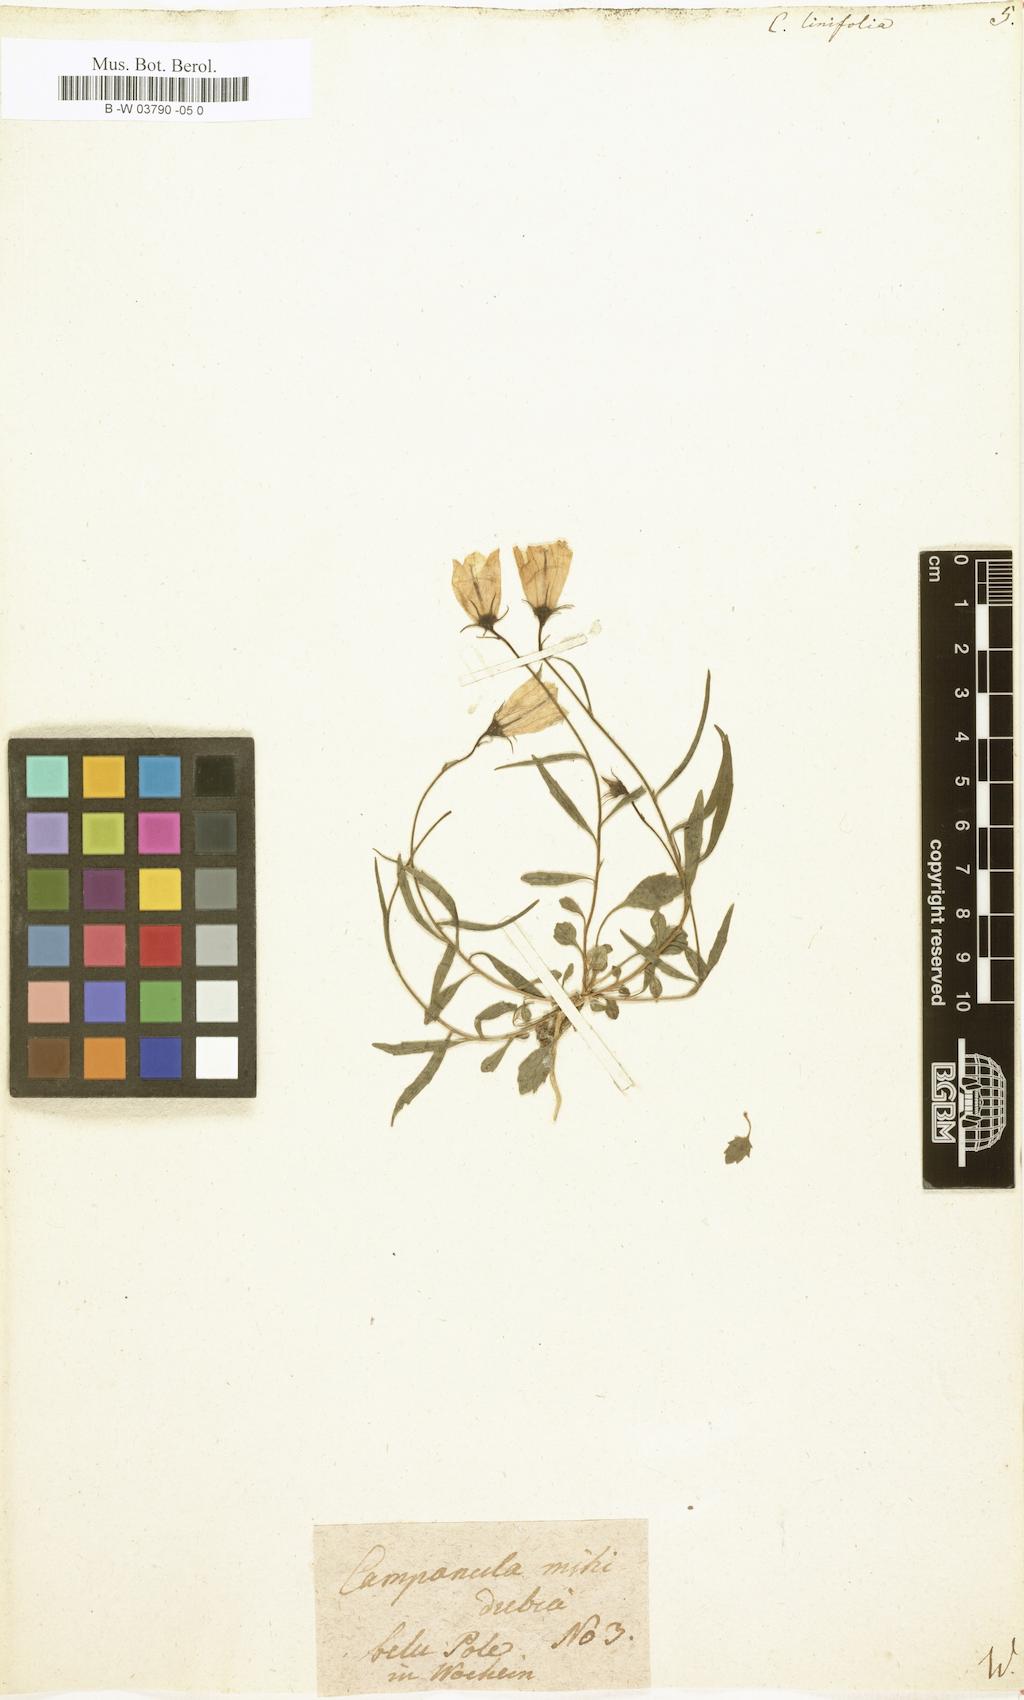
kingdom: Plantae
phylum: Tracheophyta
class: Magnoliopsida
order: Asterales
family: Campanulaceae
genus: Campanula
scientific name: Campanula
